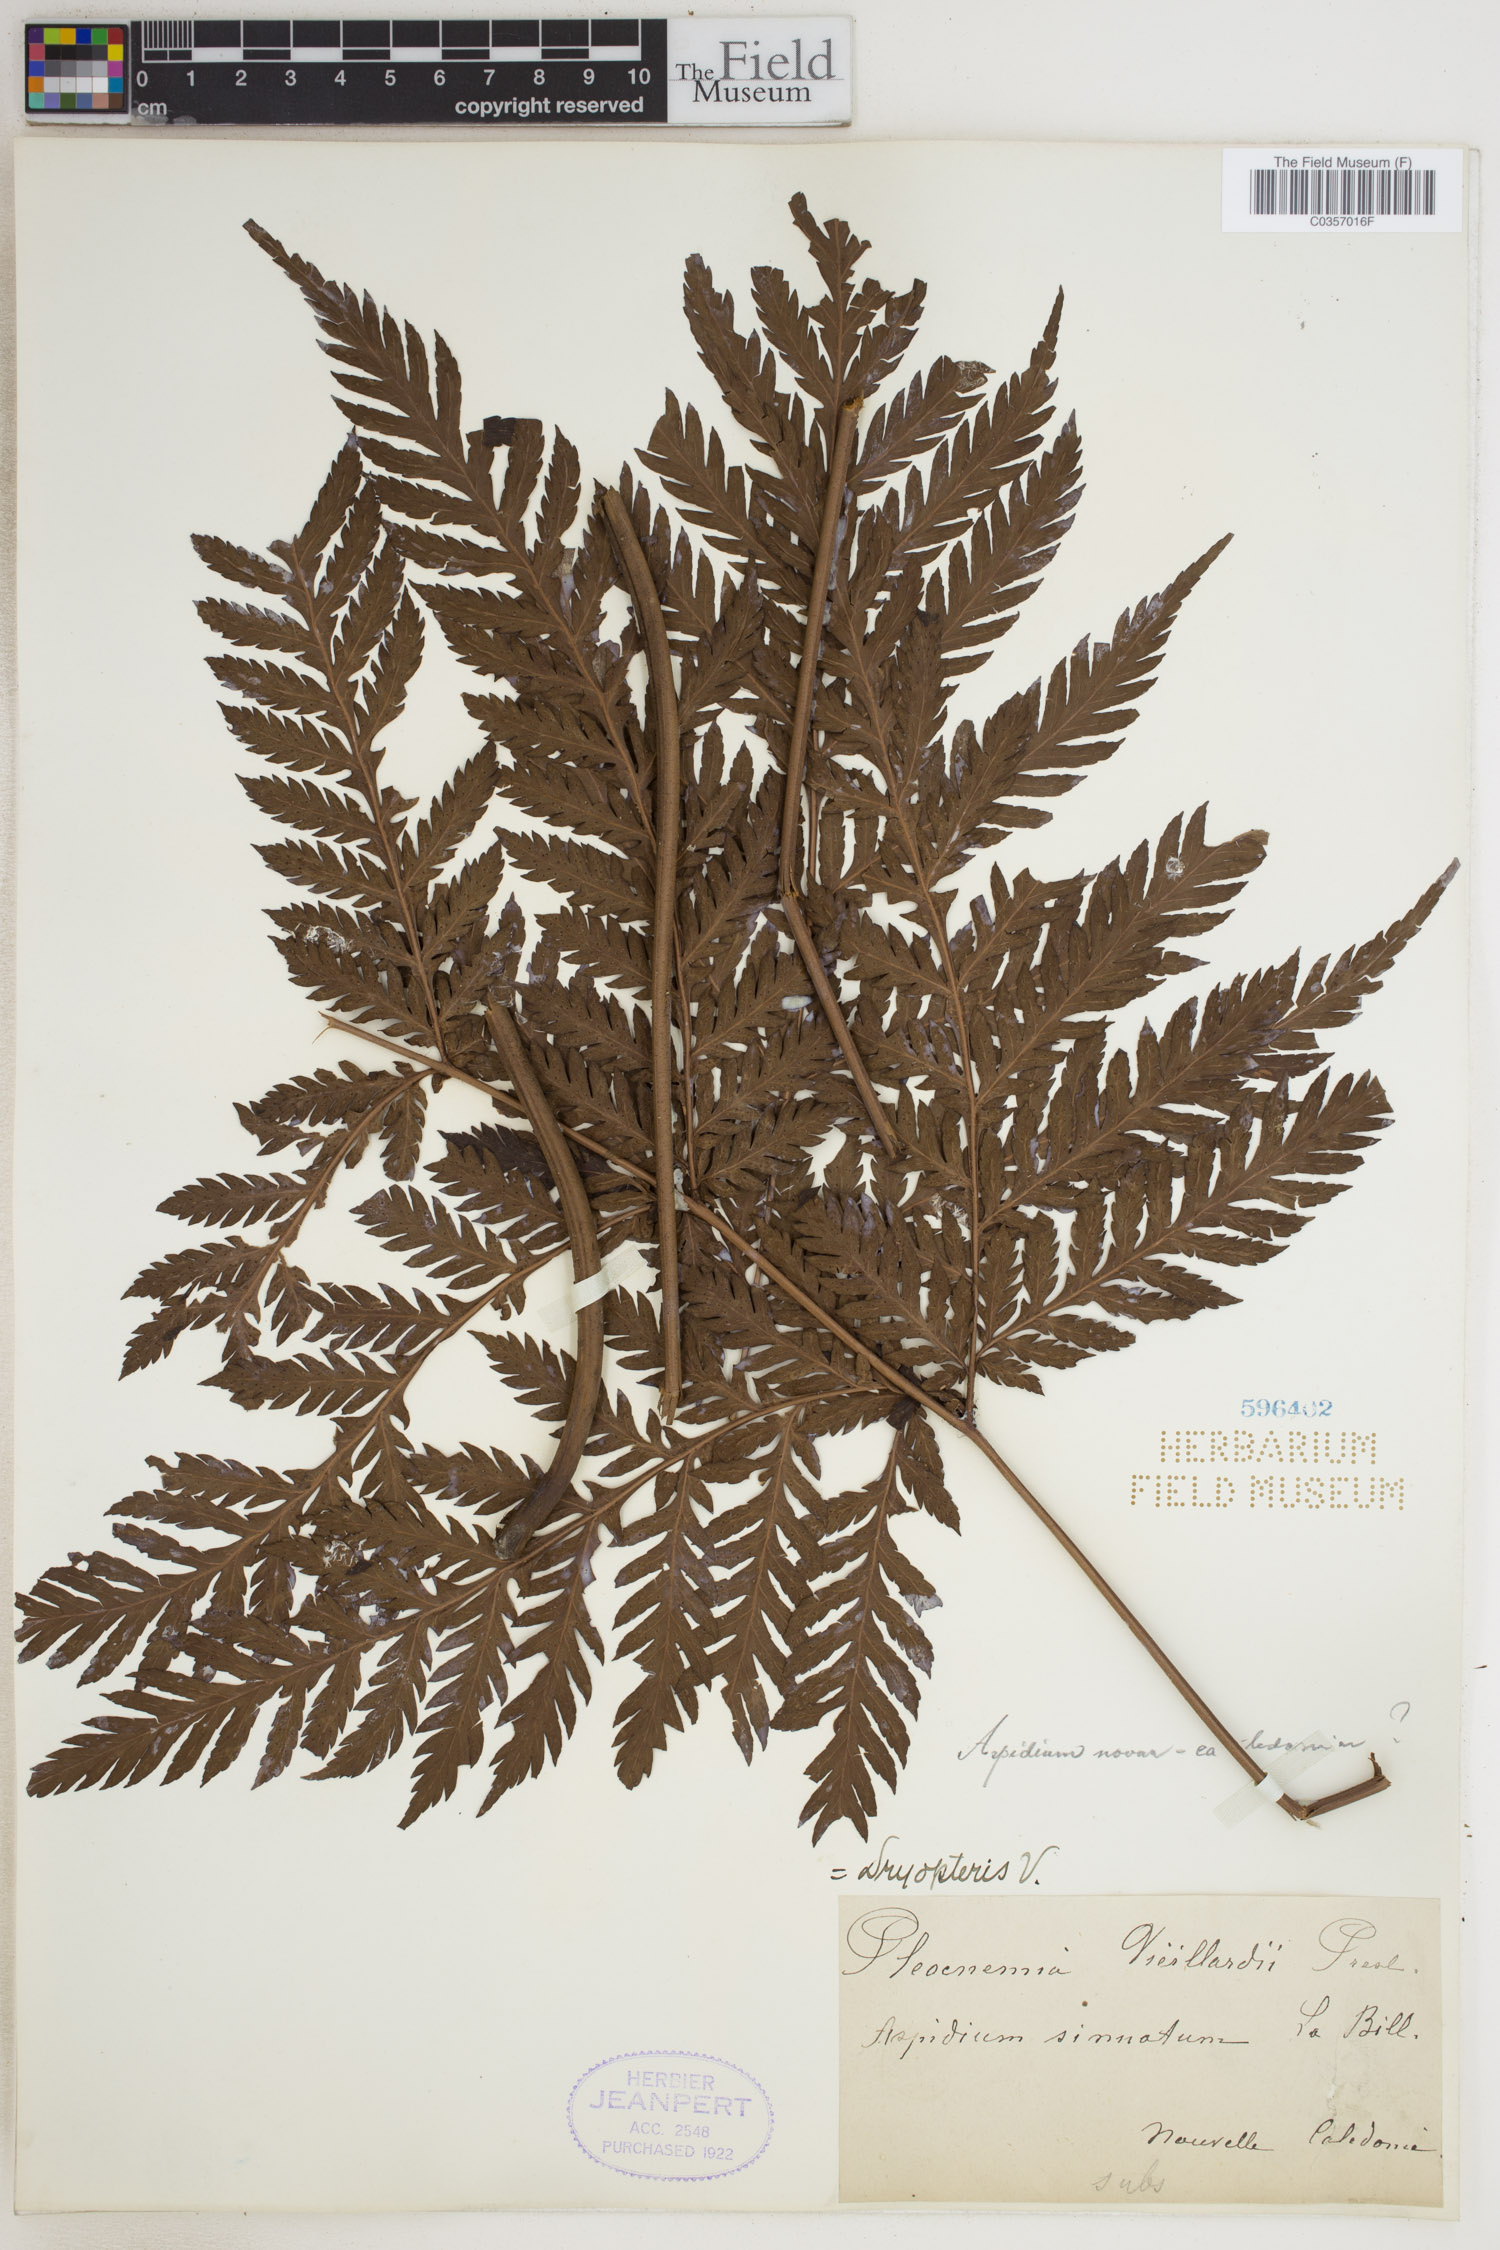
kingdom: Plantae
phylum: Tracheophyta
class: Polypodiopsida
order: Polypodiales
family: Tectariaceae
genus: Tectaria
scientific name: Tectaria vieillardii
